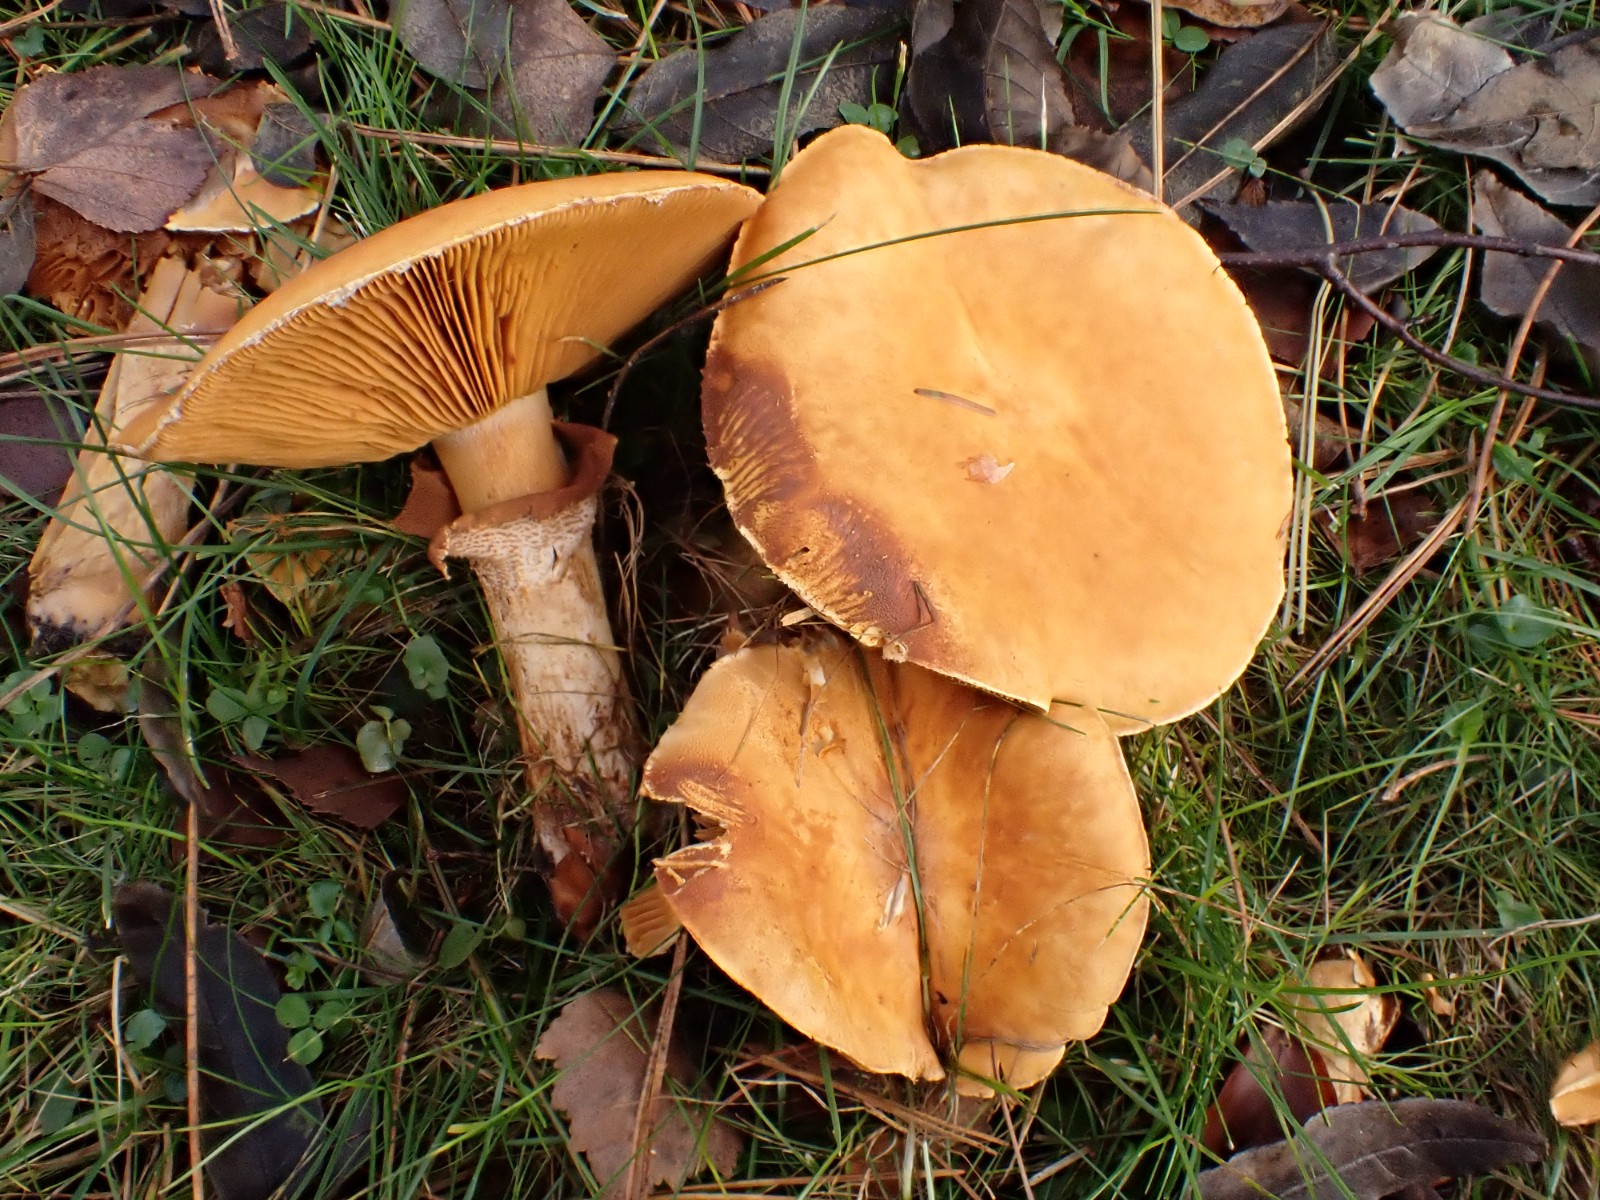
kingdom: Fungi
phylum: Basidiomycota
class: Agaricomycetes
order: Agaricales
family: Tricholomataceae
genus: Phaeolepiota
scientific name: Phaeolepiota aurea
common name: gyldenhat
